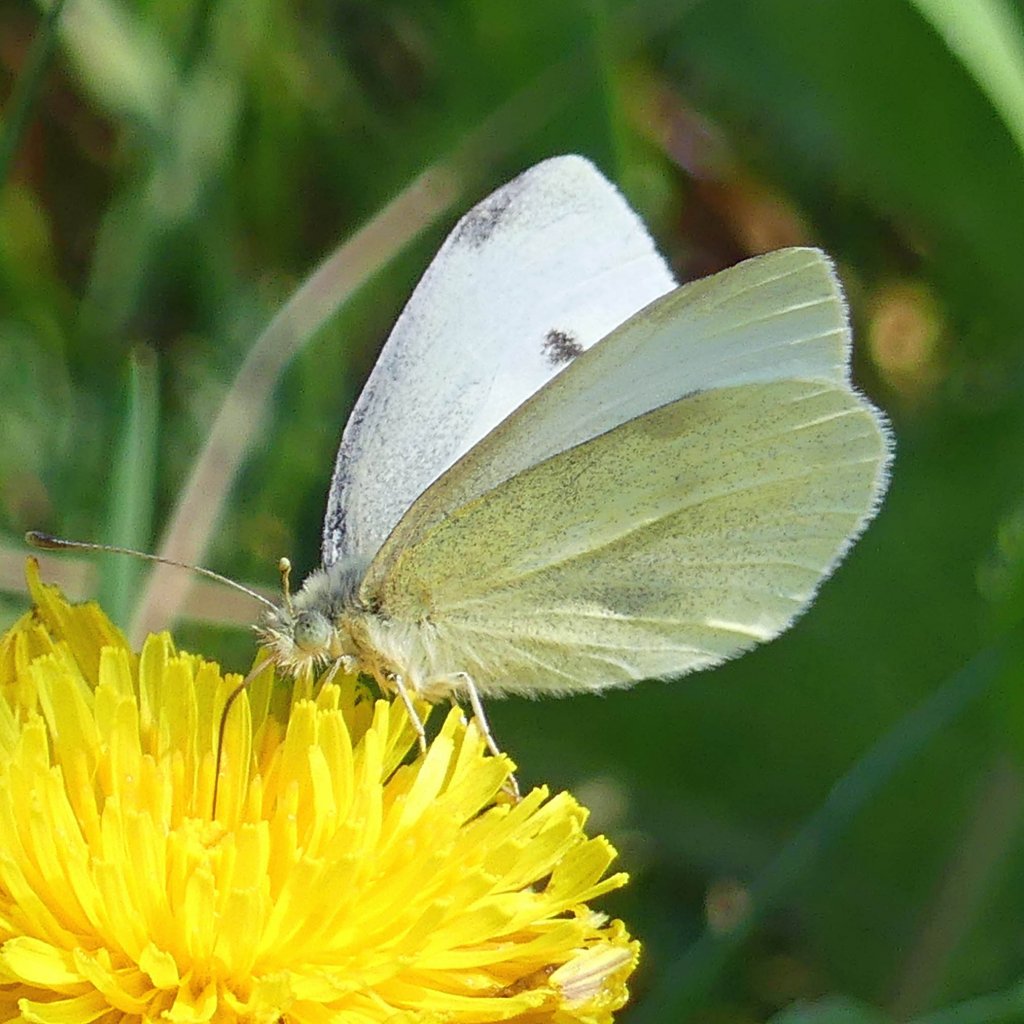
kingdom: Animalia
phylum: Arthropoda
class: Insecta
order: Lepidoptera
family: Pieridae
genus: Pieris
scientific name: Pieris rapae
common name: Cabbage White
